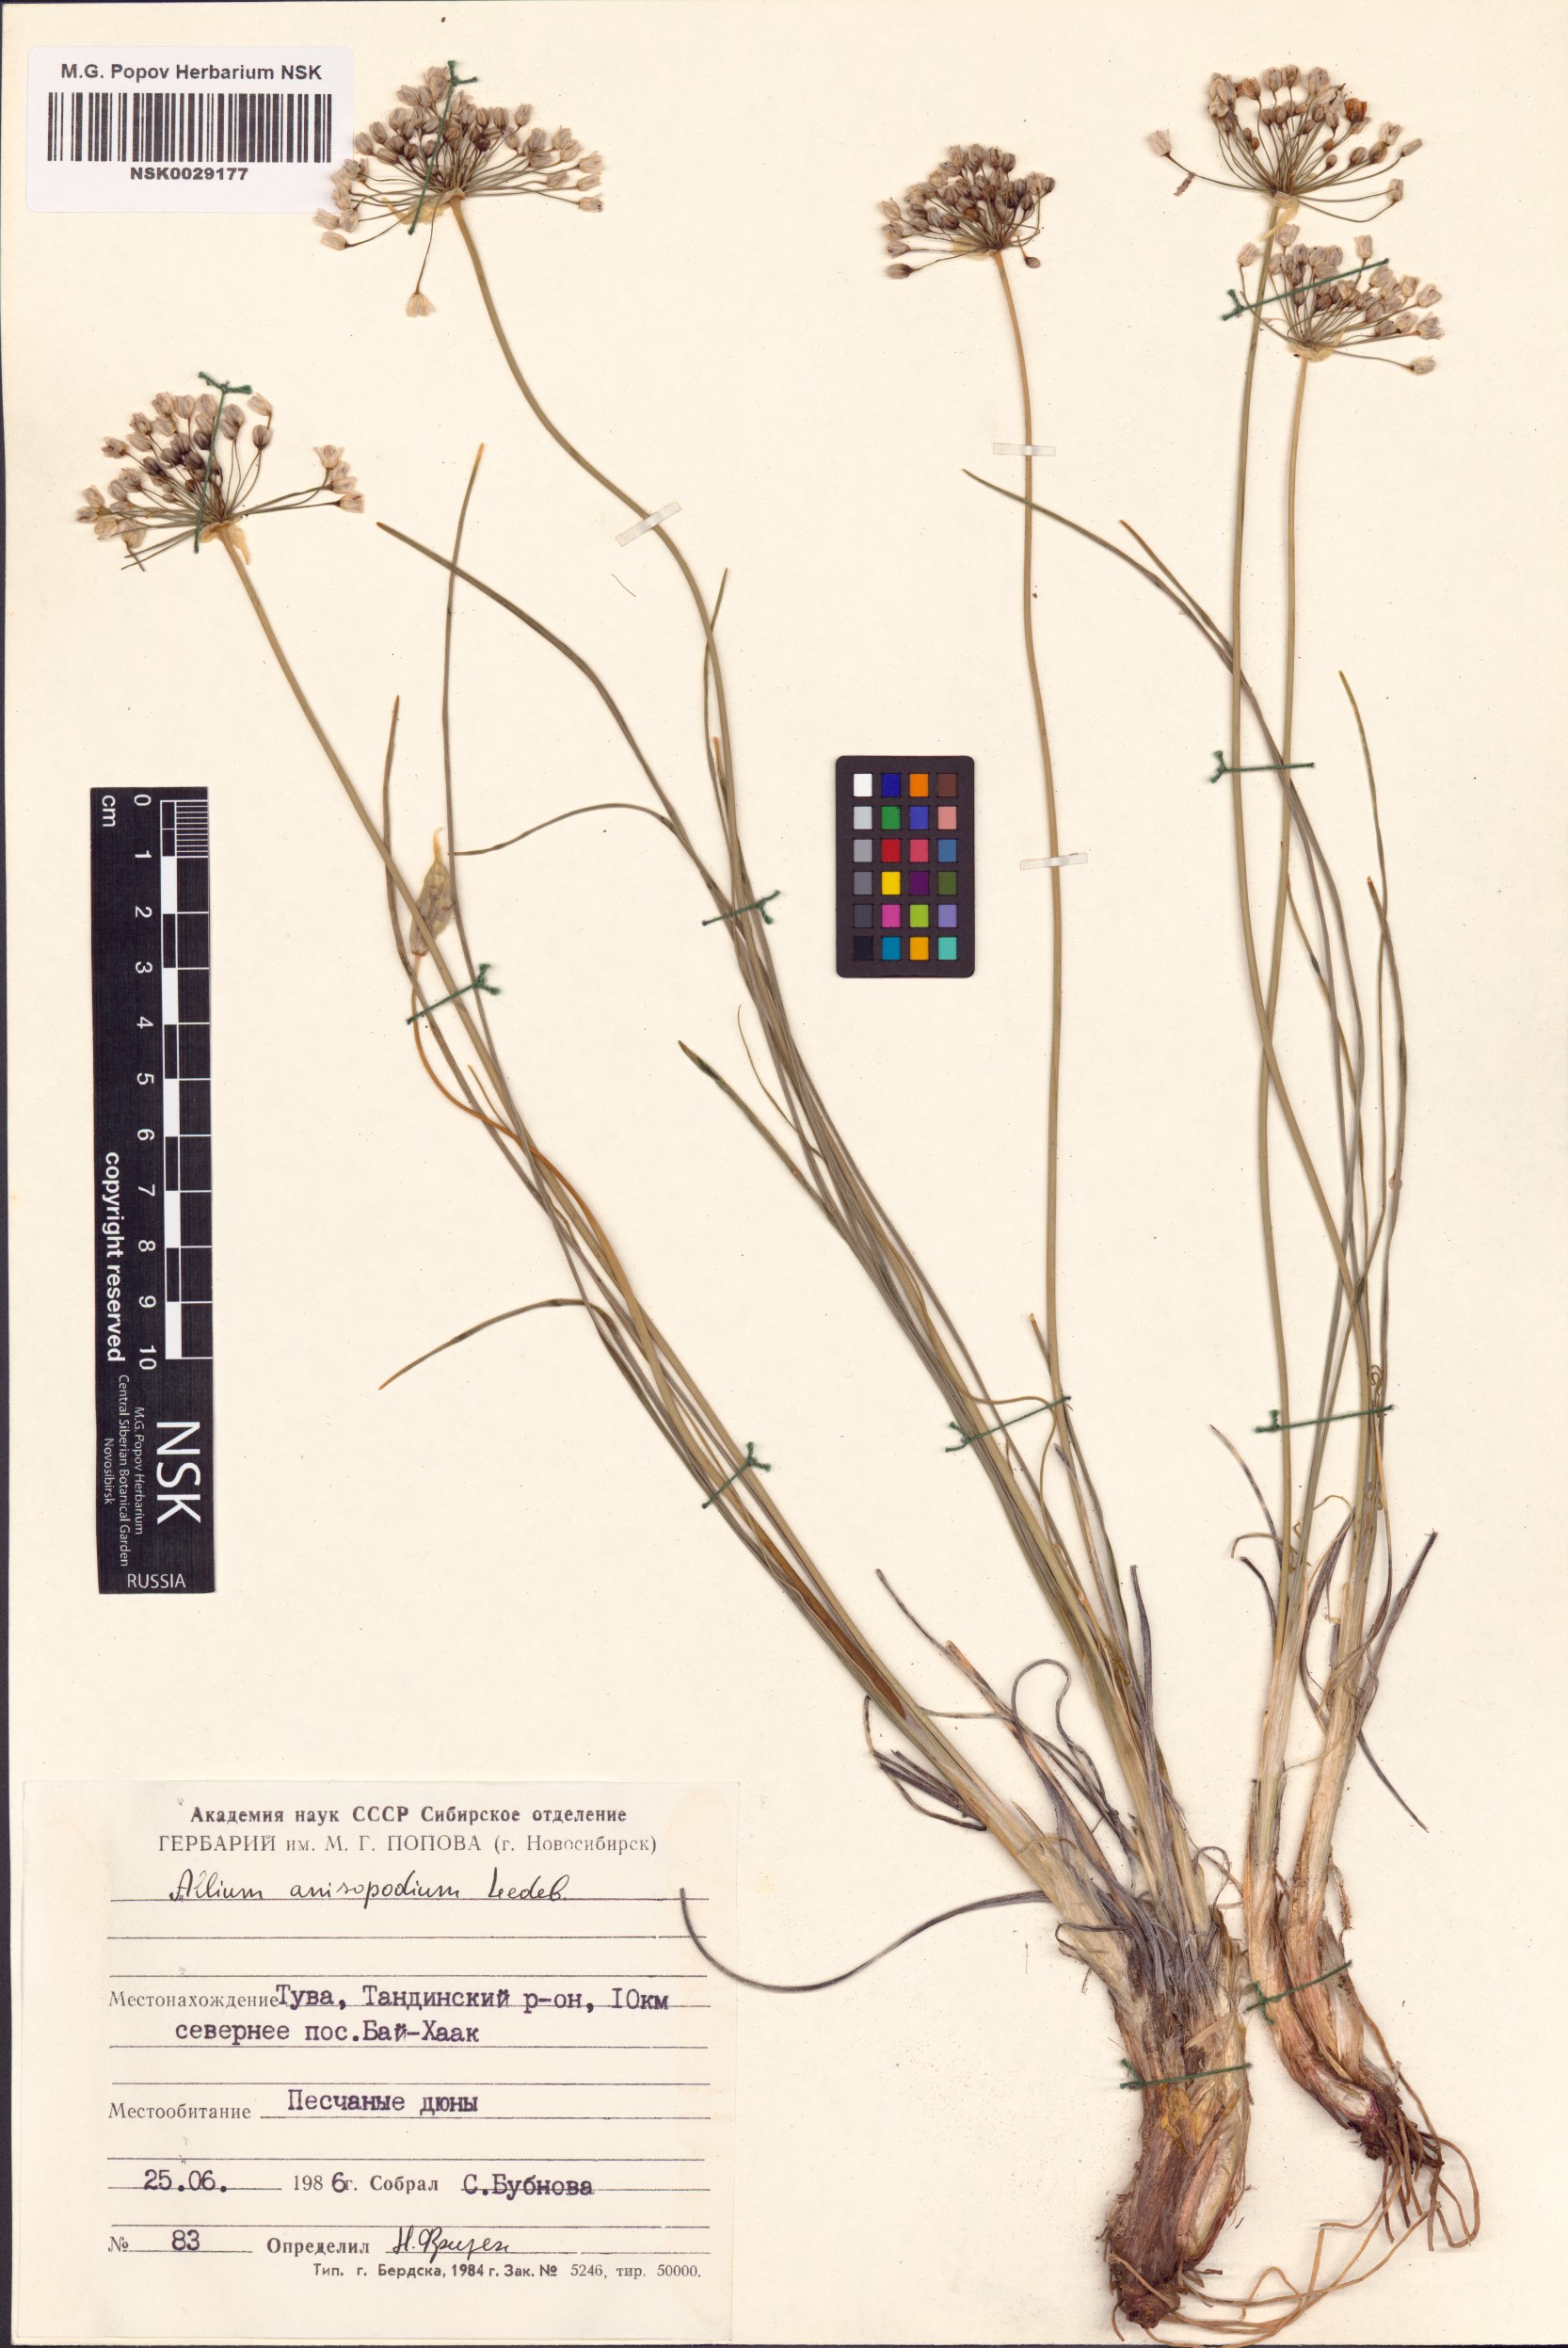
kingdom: Plantae
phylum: Tracheophyta
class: Liliopsida
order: Asparagales
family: Amaryllidaceae
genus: Allium
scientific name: Allium anisopodium
